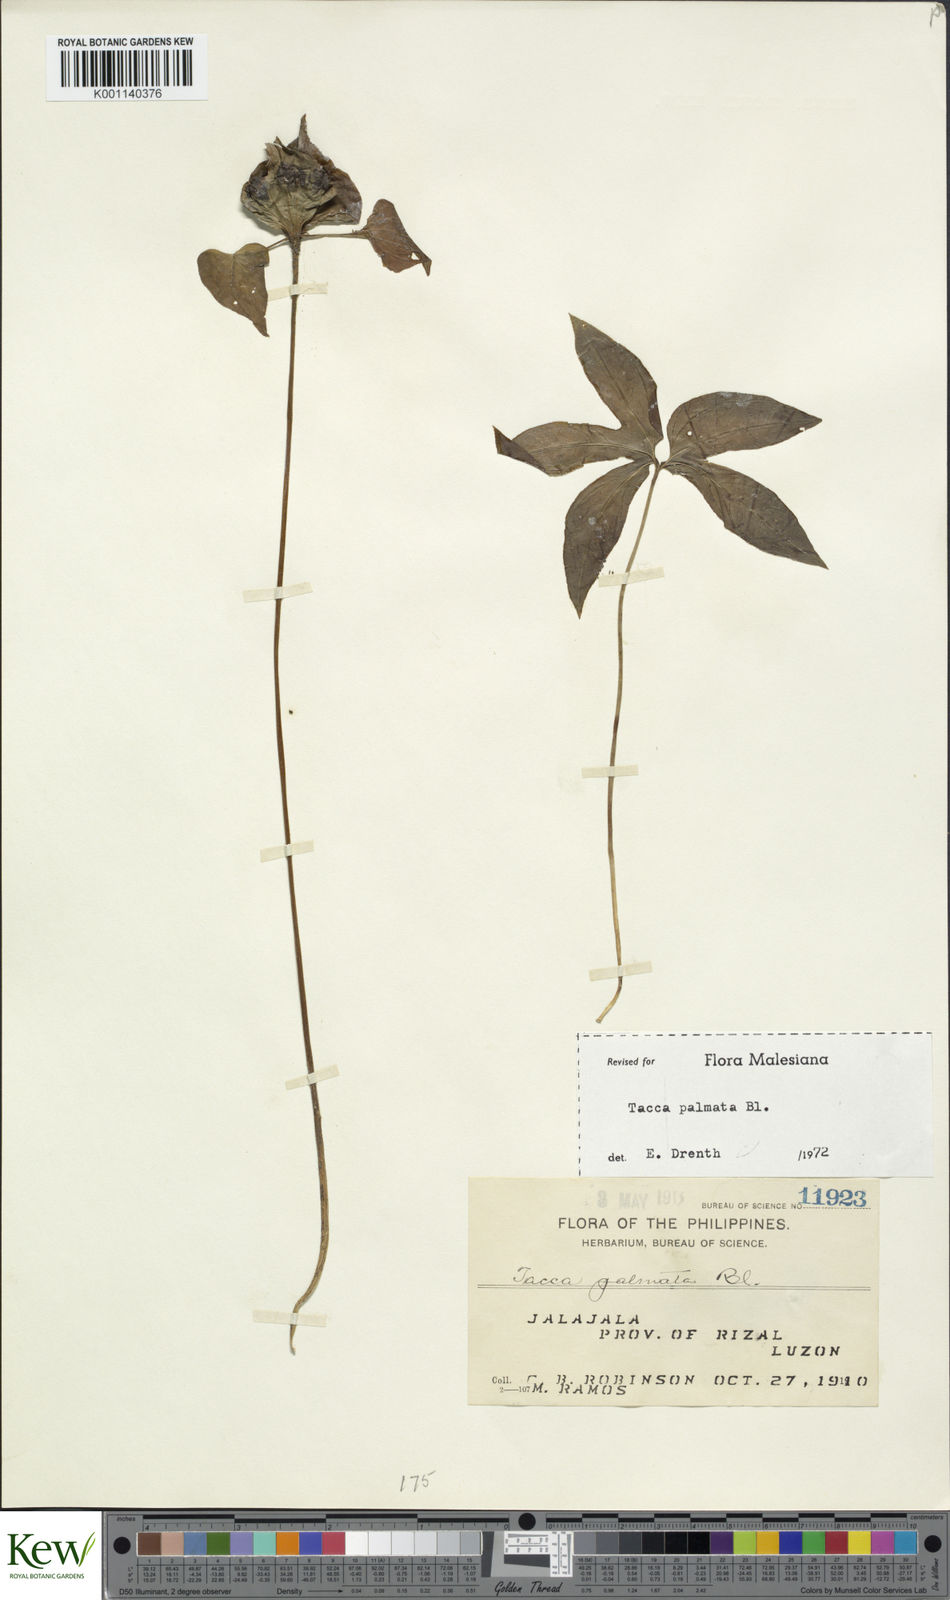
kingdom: Plantae
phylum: Tracheophyta
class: Liliopsida
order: Dioscoreales
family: Dioscoreaceae
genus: Tacca
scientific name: Tacca palmata
